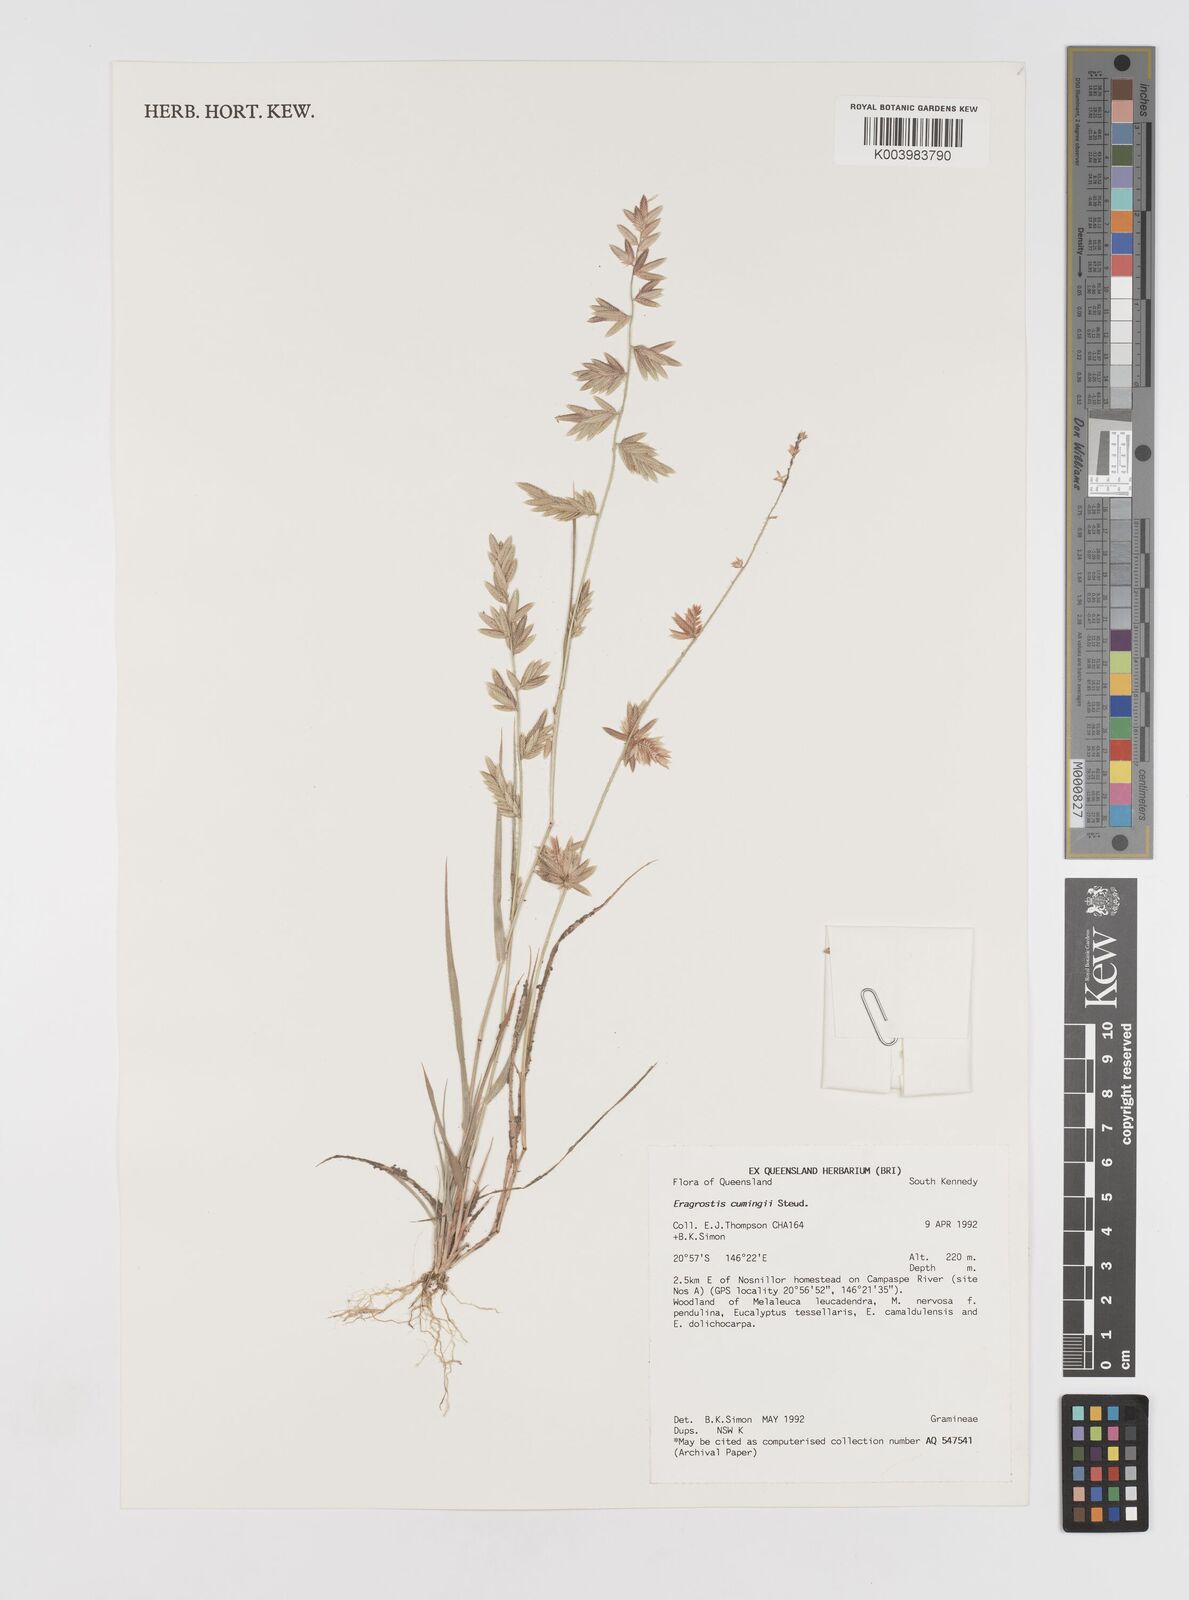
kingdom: Plantae
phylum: Tracheophyta
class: Liliopsida
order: Poales
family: Poaceae
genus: Eragrostis
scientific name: Eragrostis cumingii
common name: Cuming's lovegrass
